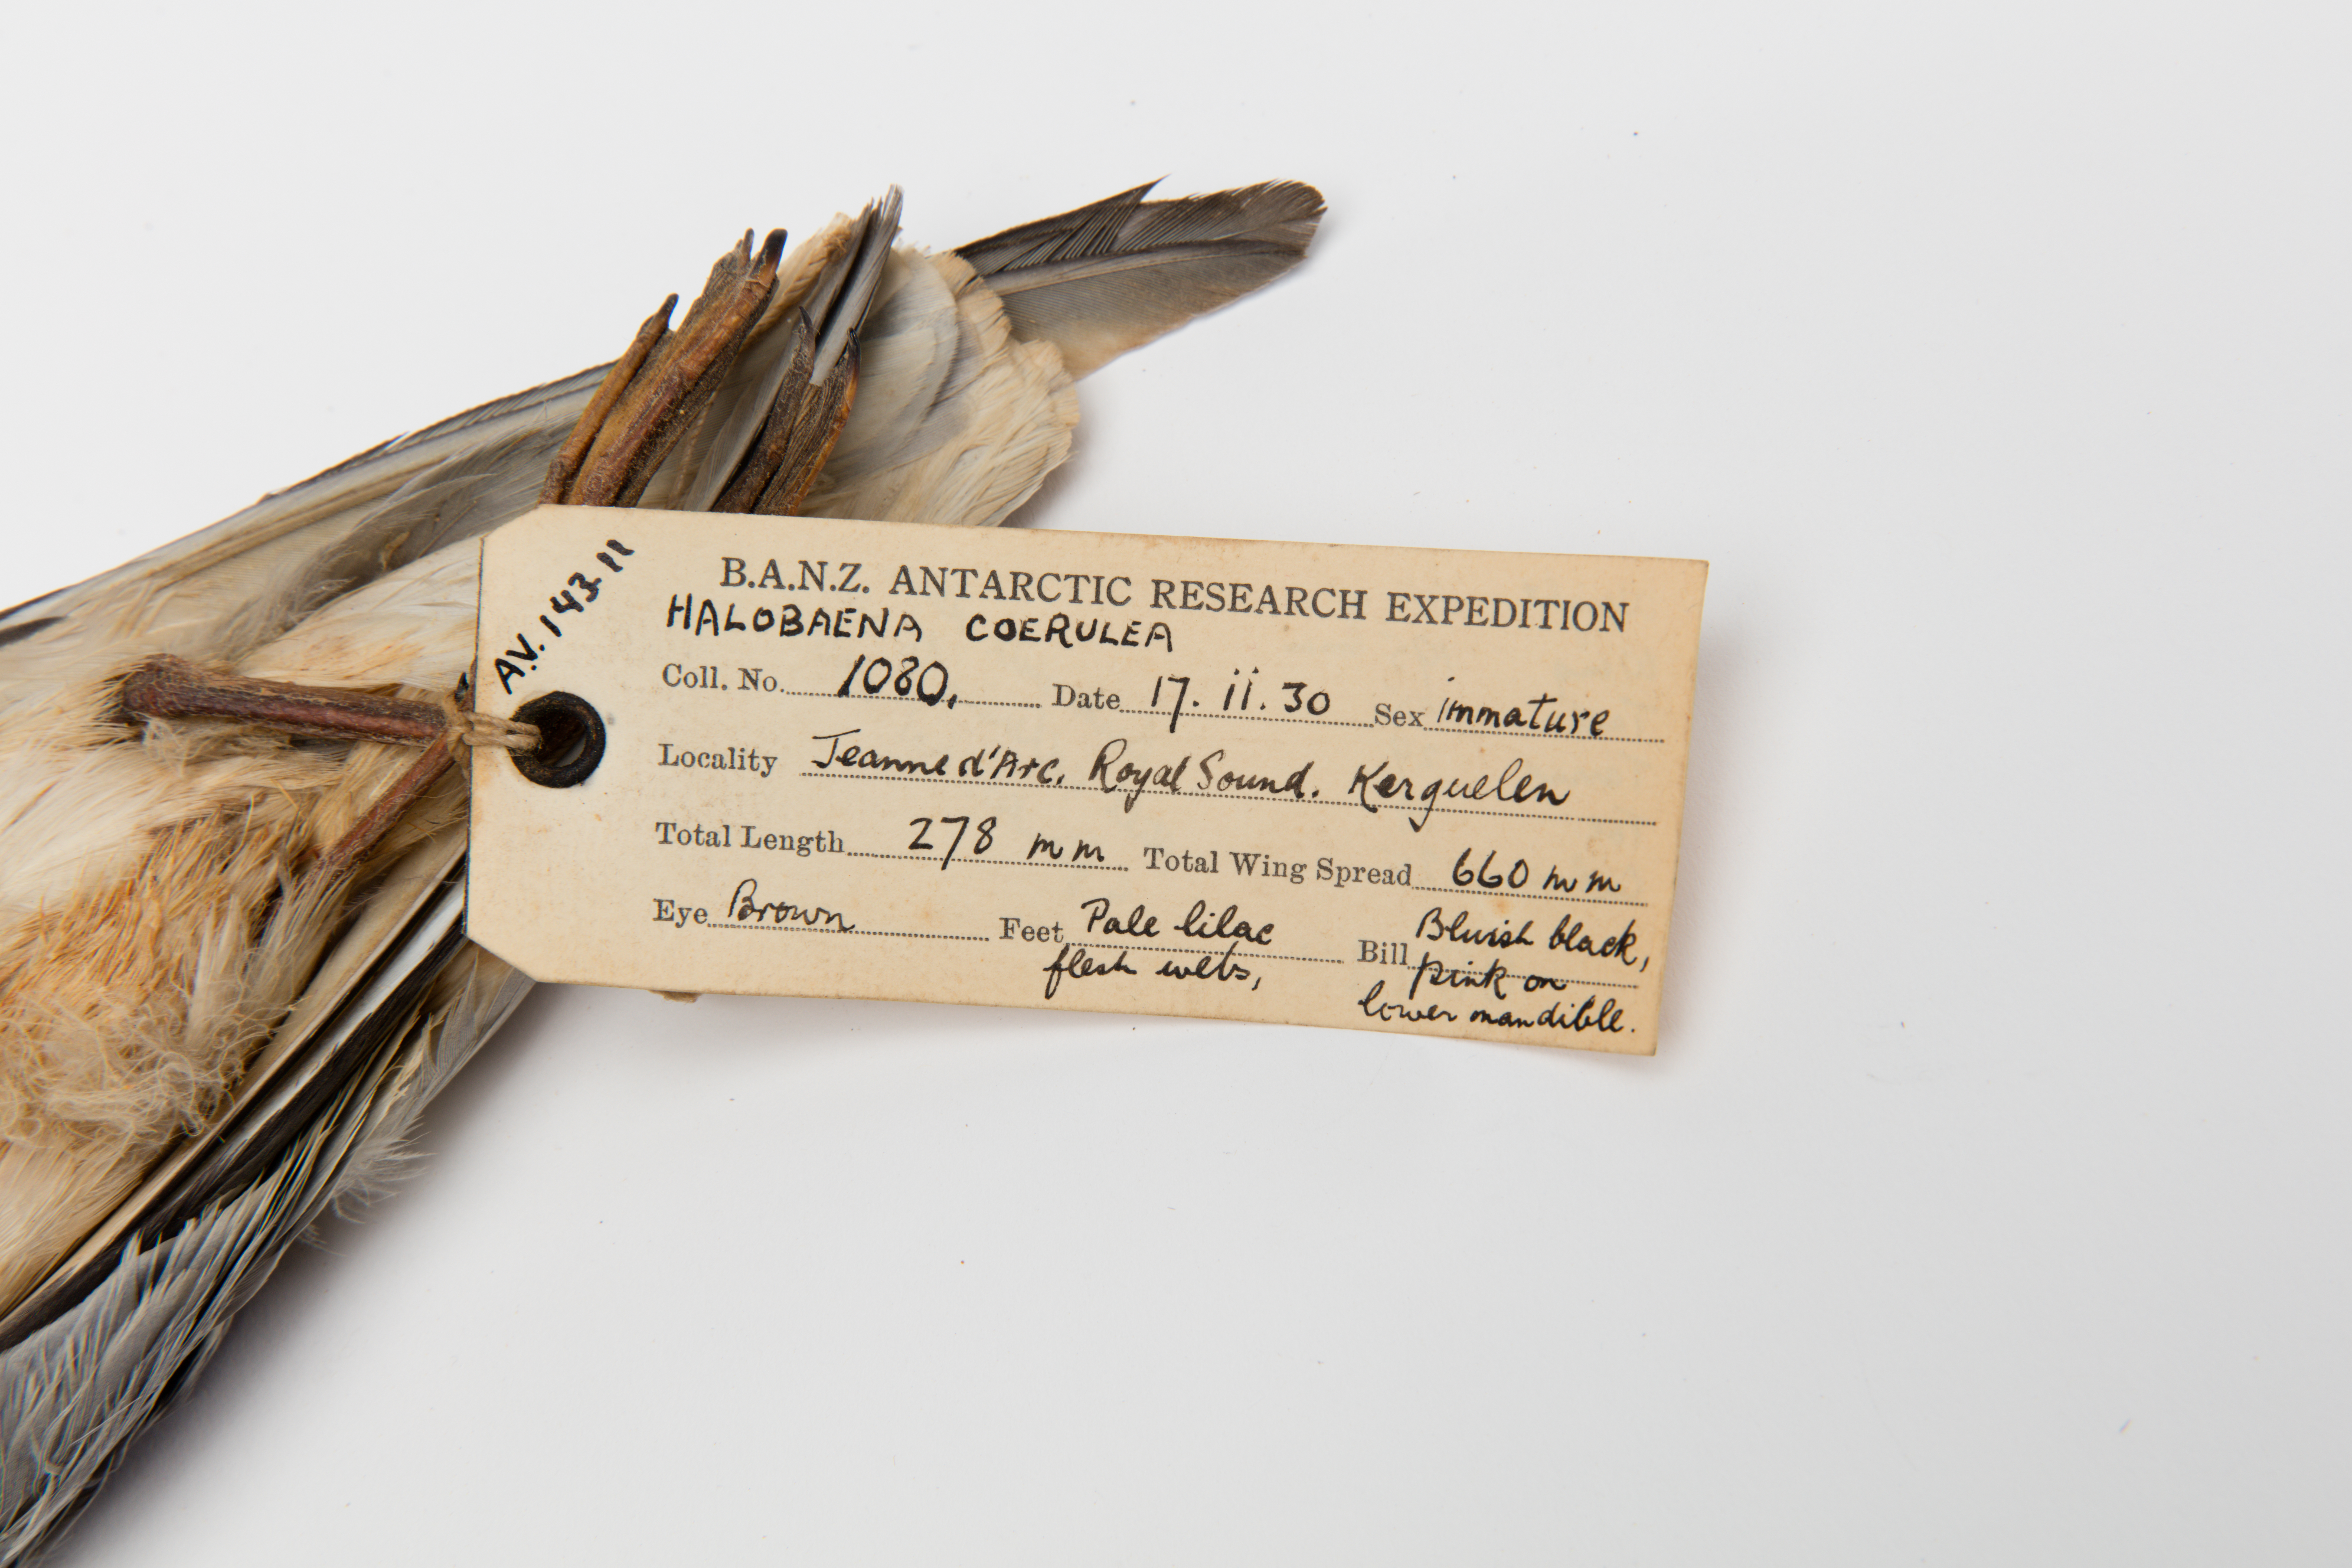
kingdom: Animalia
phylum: Chordata
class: Aves
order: Procellariiformes
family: Procellariidae
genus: Halobaena
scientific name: Halobaena caerulea
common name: Blue petrel
